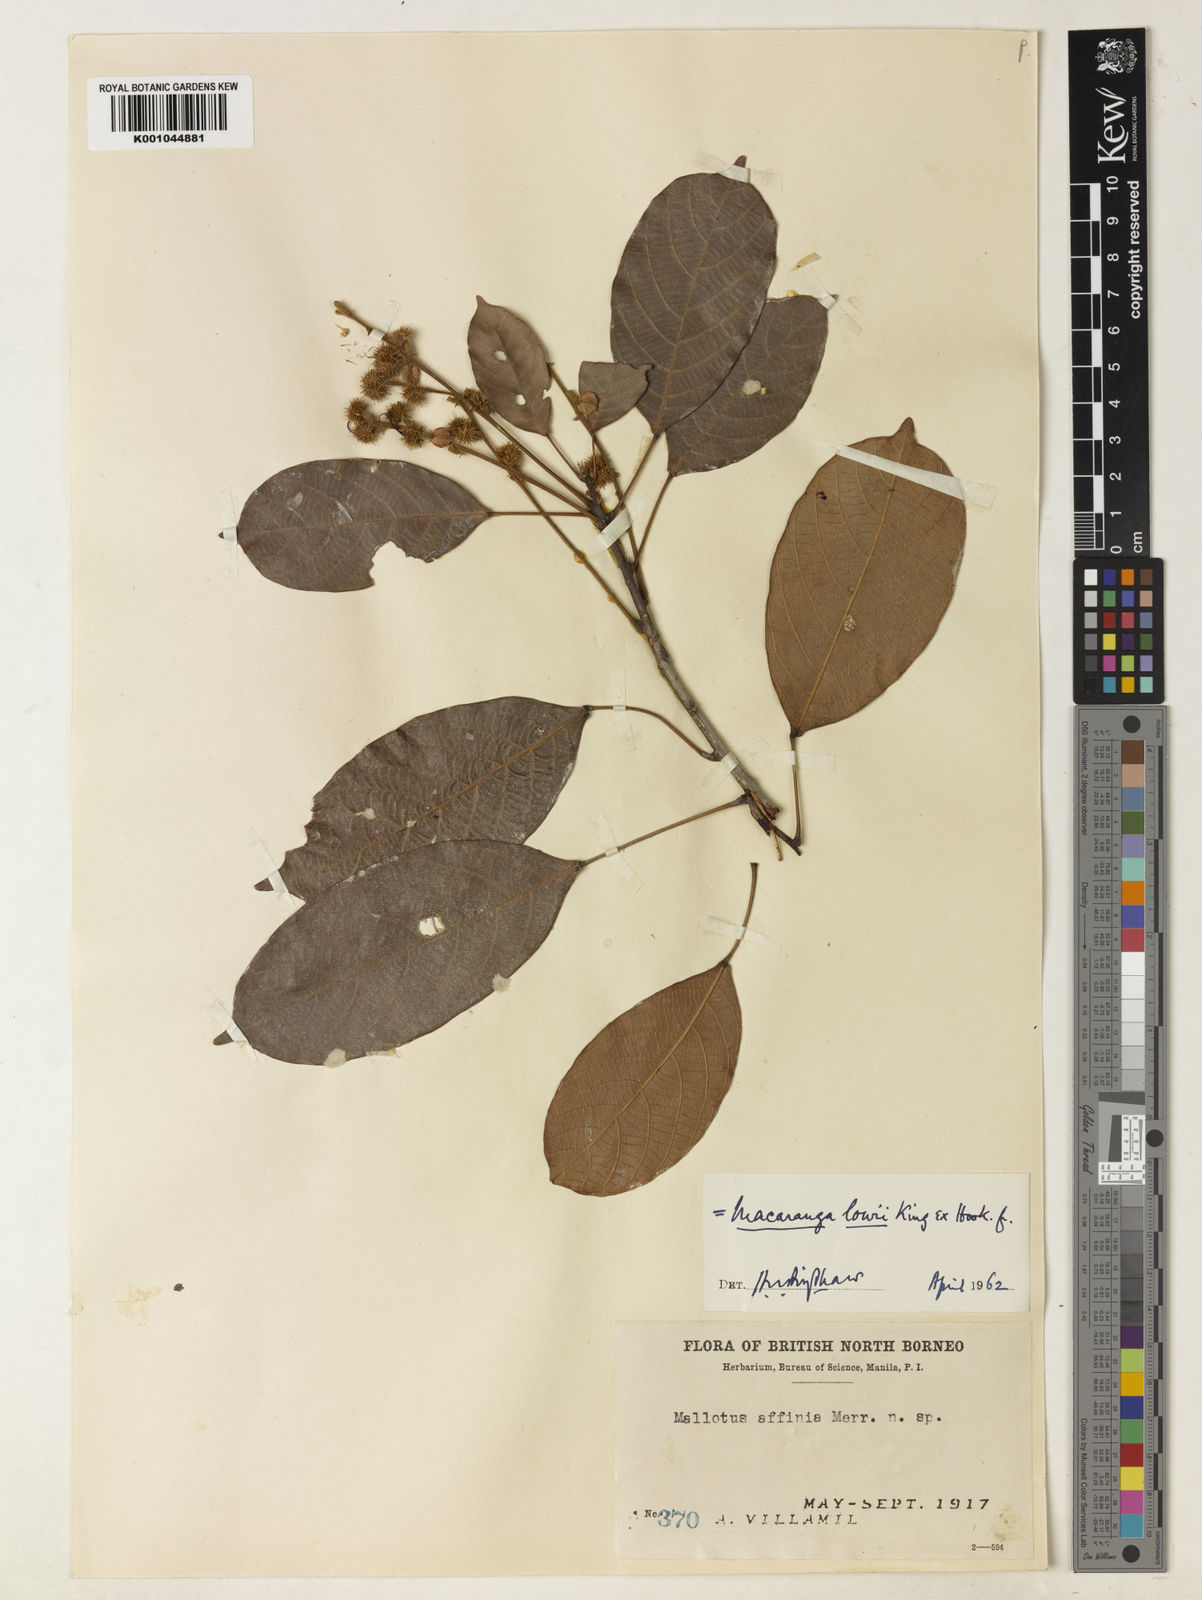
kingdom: Plantae
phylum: Tracheophyta
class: Magnoliopsida
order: Malpighiales
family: Euphorbiaceae
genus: Macaranga
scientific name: Macaranga lowii
